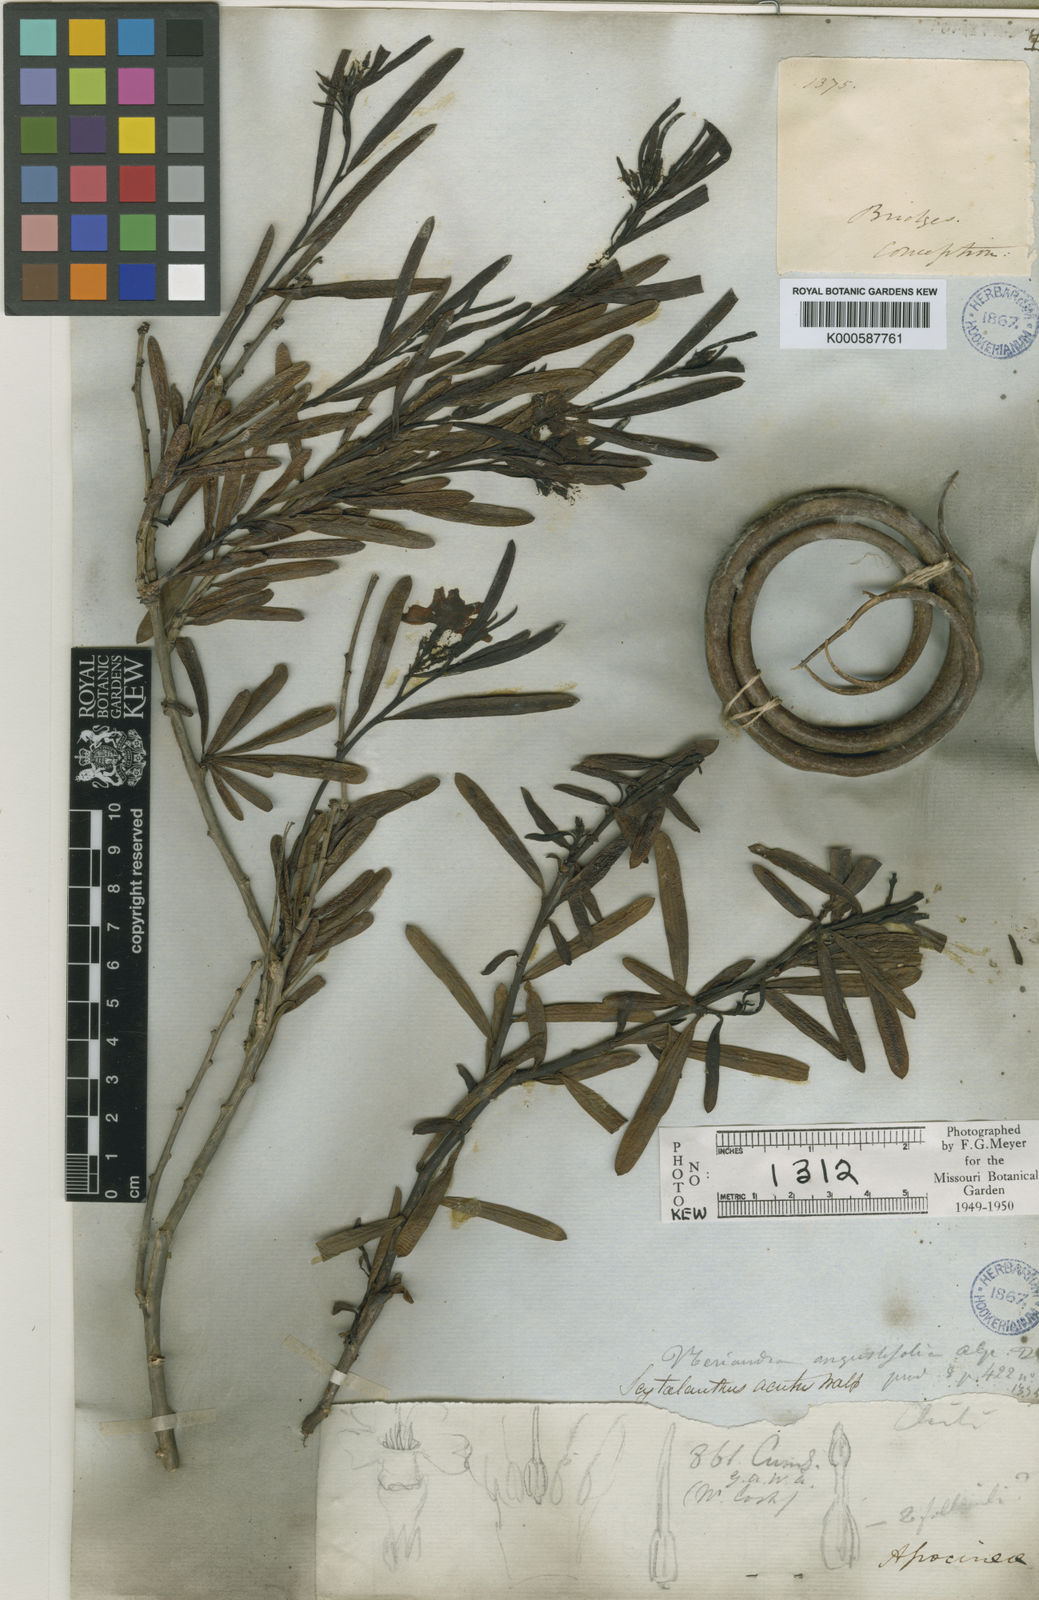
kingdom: Plantae
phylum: Tracheophyta
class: Magnoliopsida
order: Gentianales
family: Apocynaceae
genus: Skytanthus
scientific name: Skytanthus acutus
